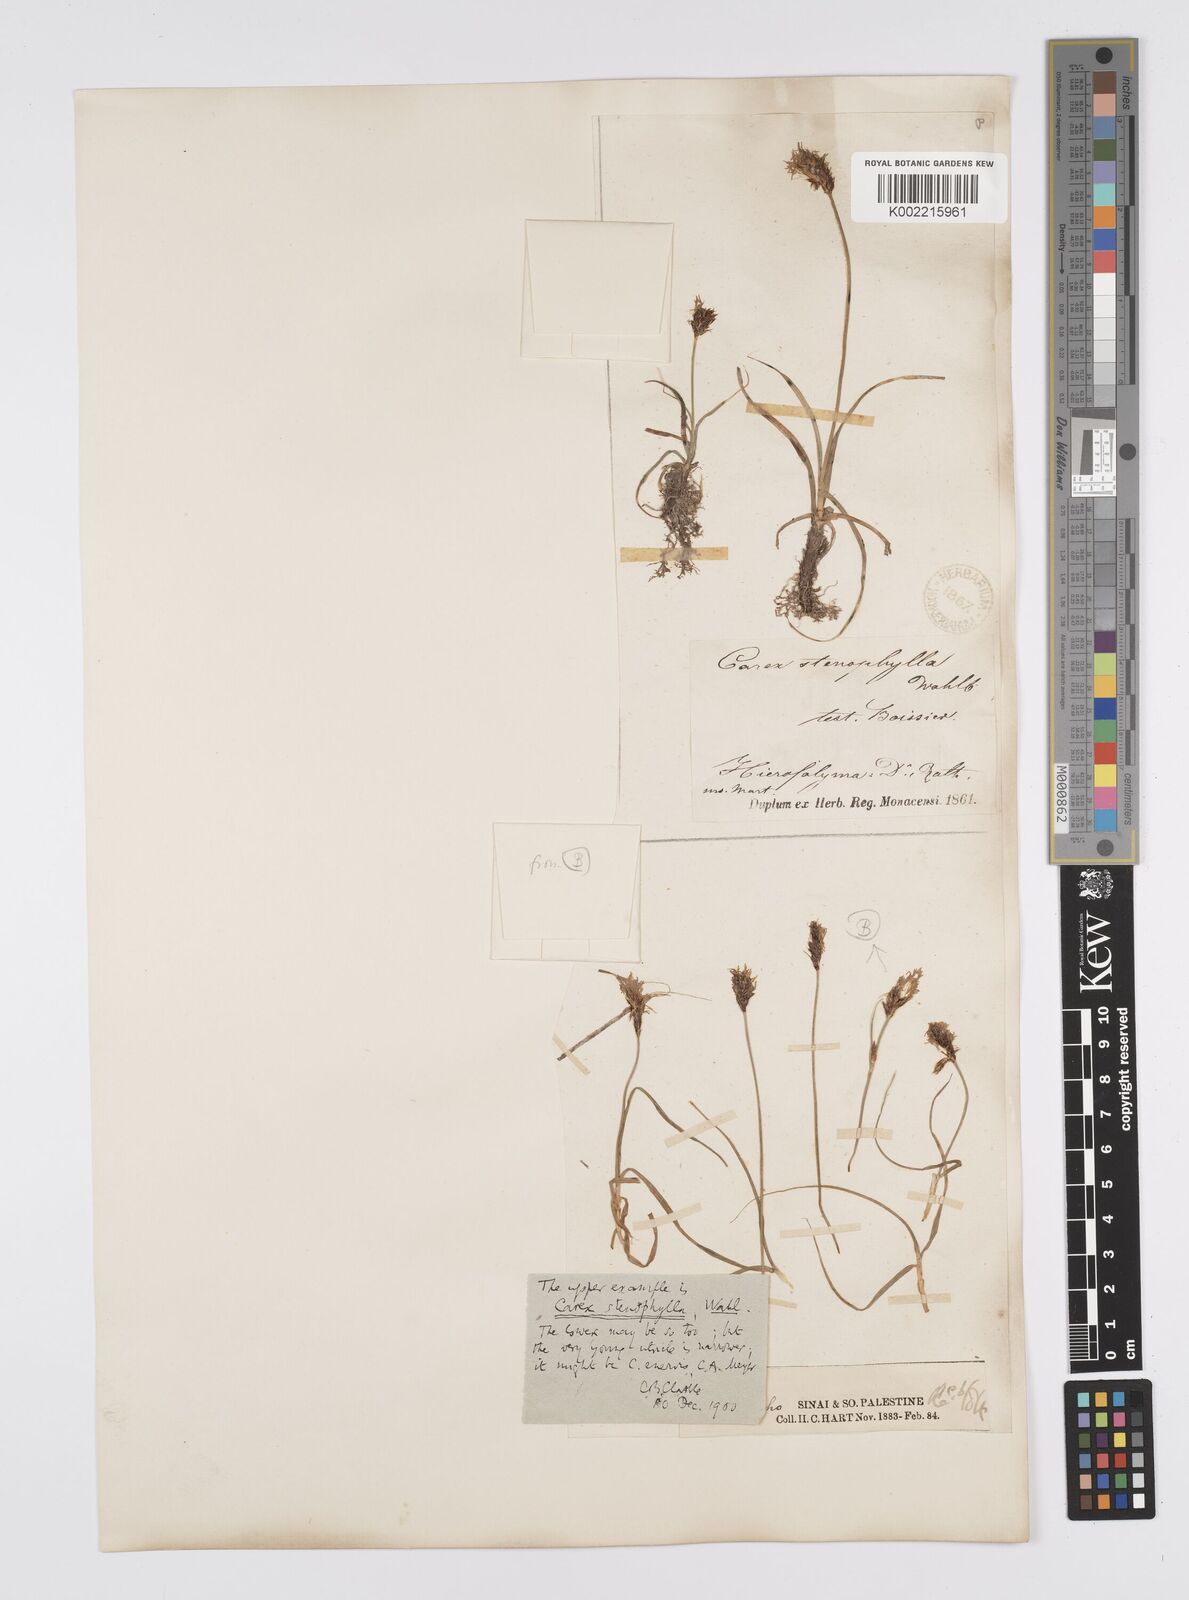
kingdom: Plantae
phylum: Tracheophyta
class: Liliopsida
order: Poales
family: Cyperaceae
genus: Carex
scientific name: Carex pachystylis
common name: Thick-stem sedge
